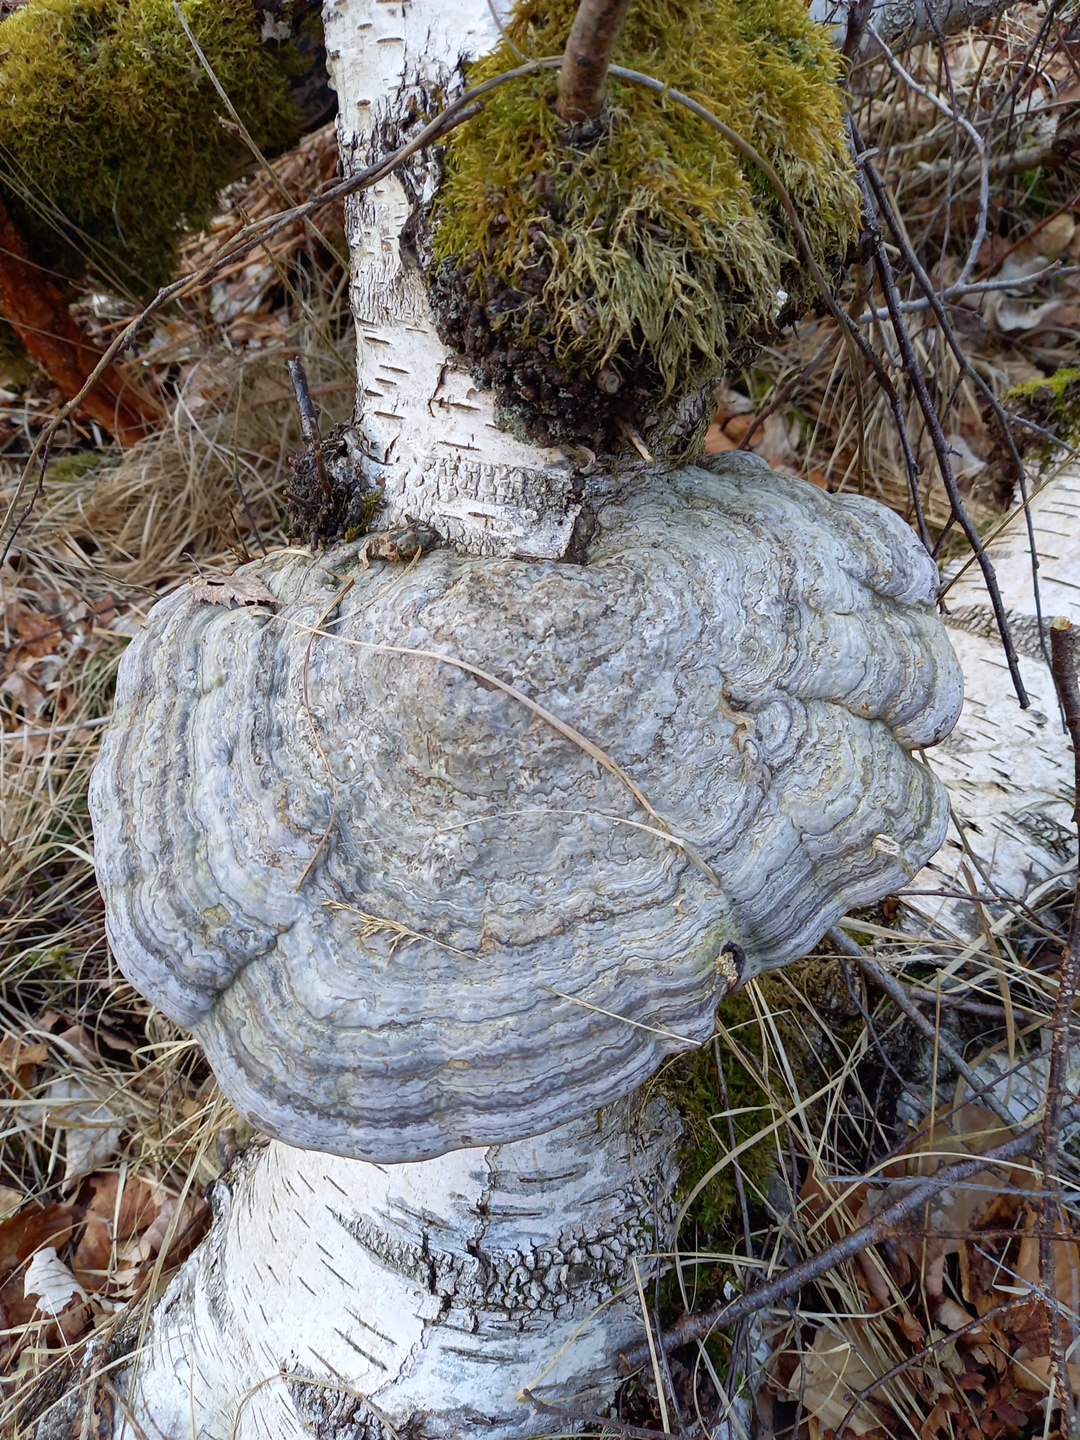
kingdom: Fungi
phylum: Basidiomycota
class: Agaricomycetes
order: Polyporales
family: Polyporaceae
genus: Fomes
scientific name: Fomes fomentarius
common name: tøndersvamp
